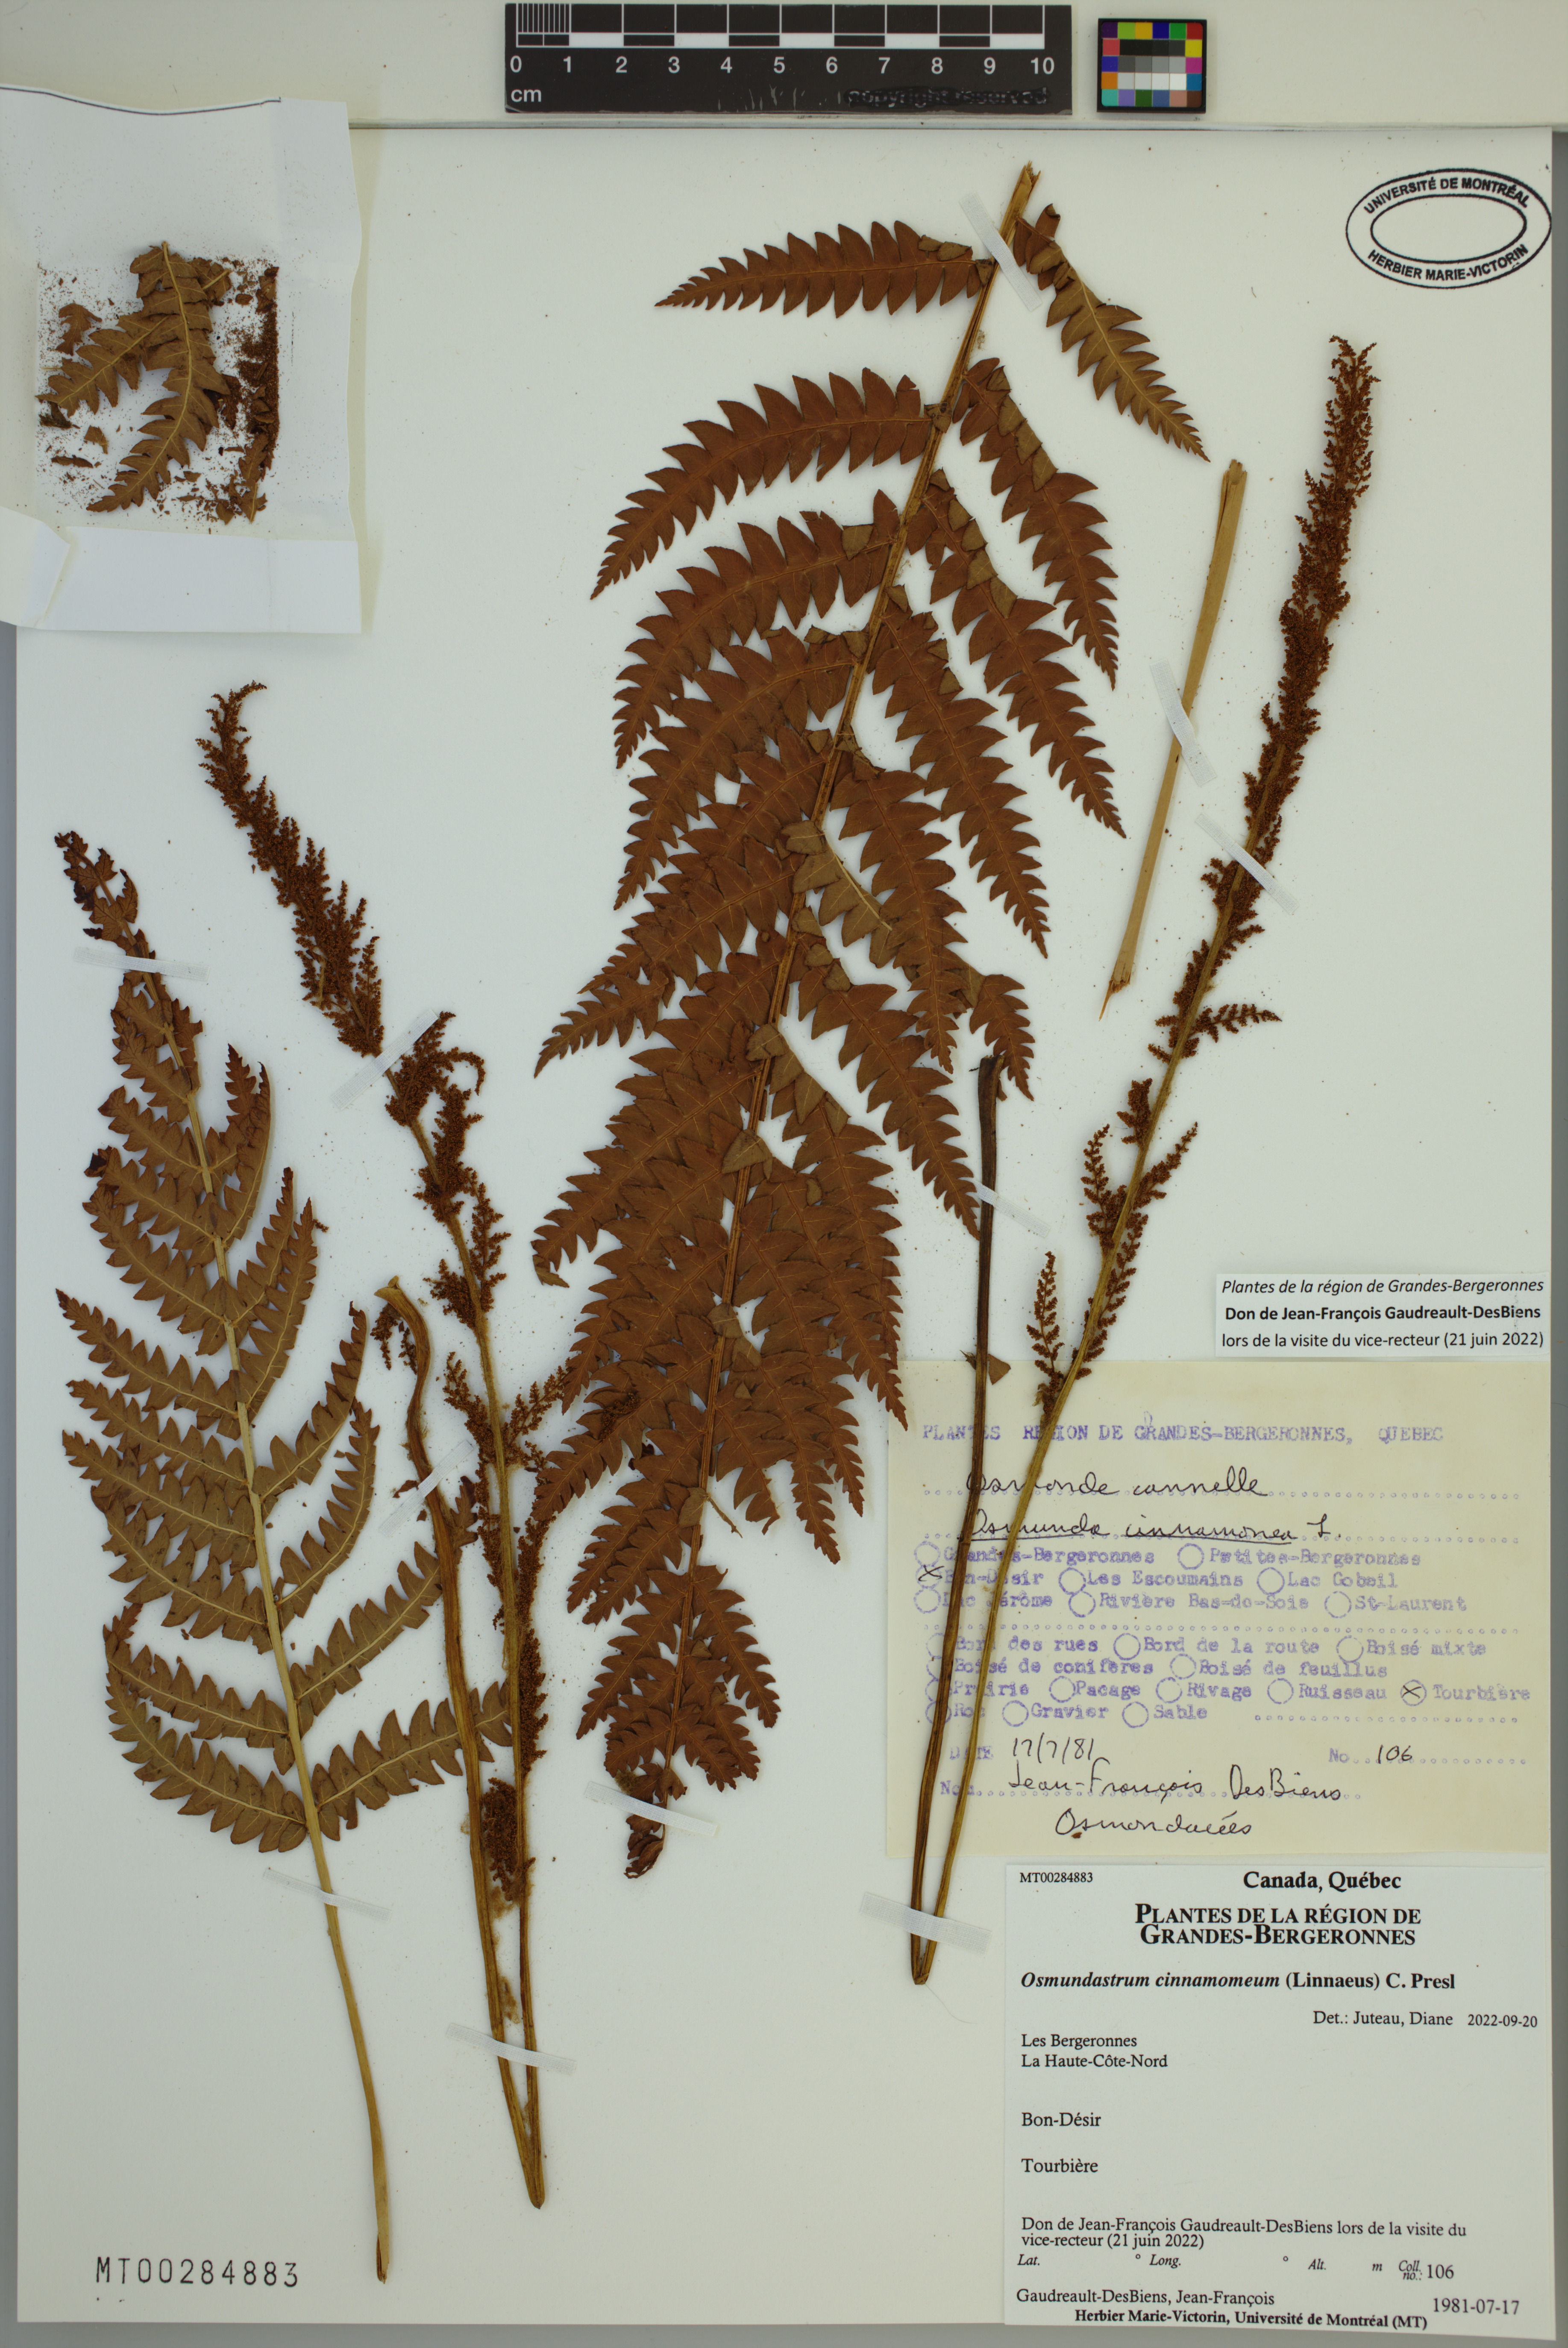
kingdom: Plantae
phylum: Tracheophyta
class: Polypodiopsida
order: Osmundales
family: Osmundaceae
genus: Osmundastrum
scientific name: Osmundastrum cinnamomeum
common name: Cinnamon fern
